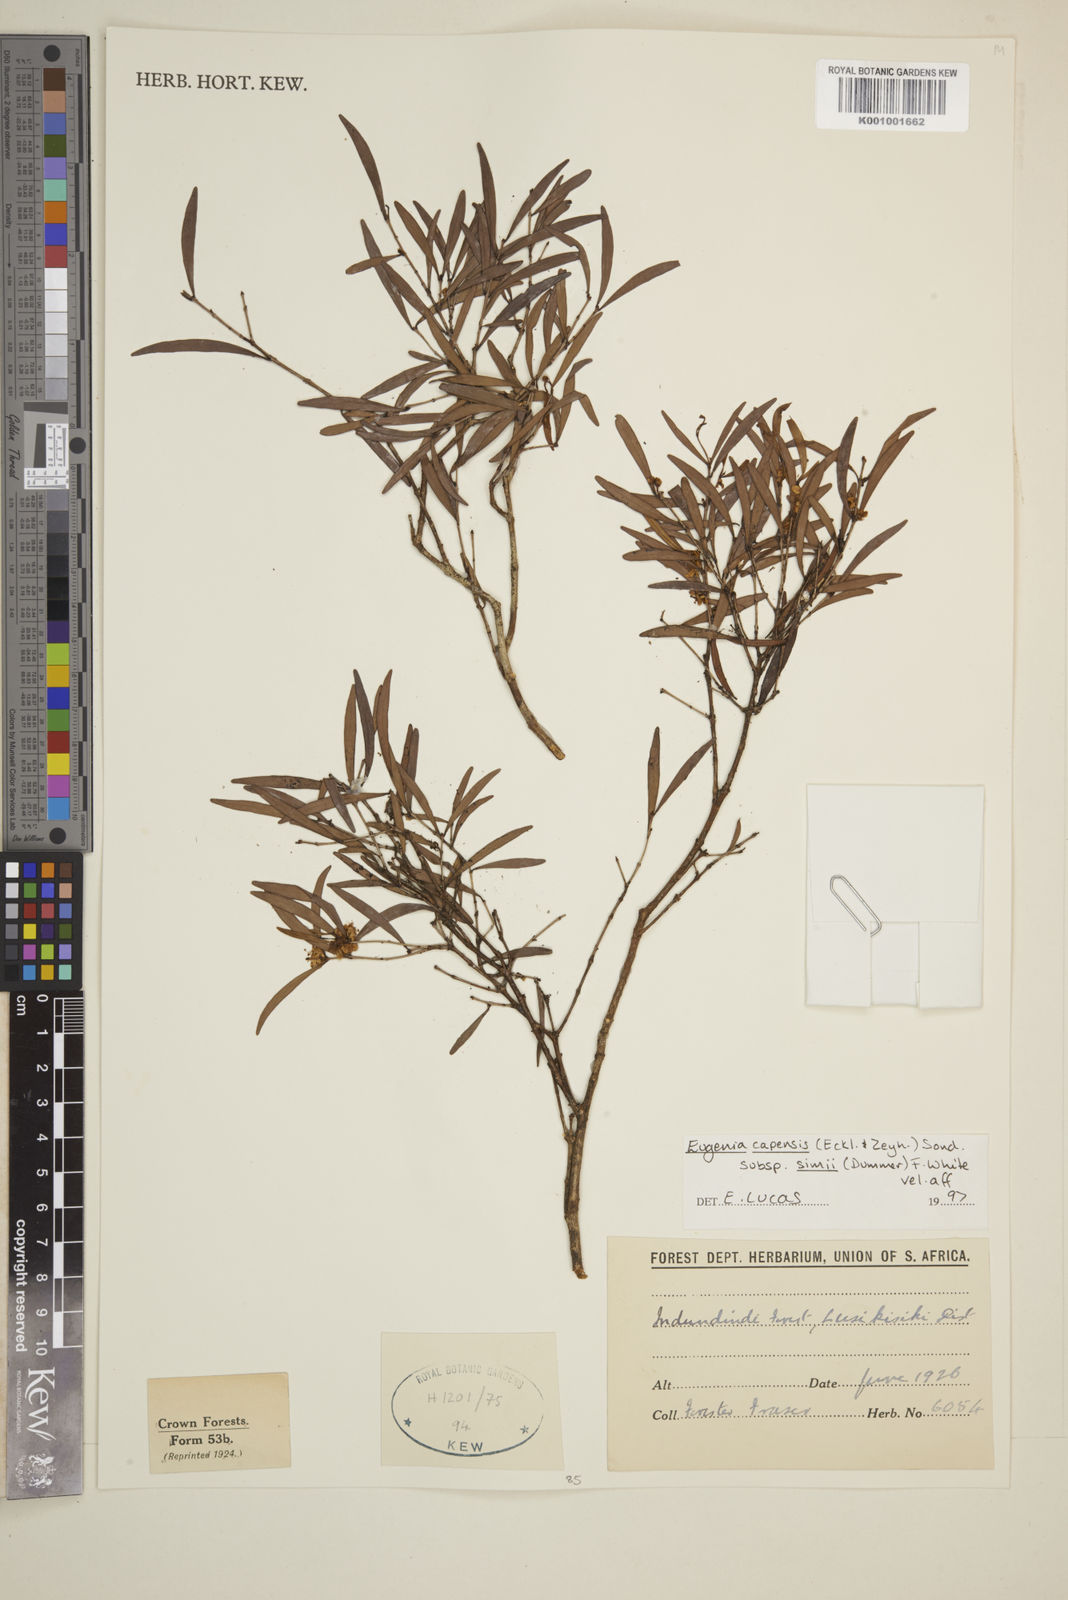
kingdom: Plantae
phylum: Tracheophyta
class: Magnoliopsida
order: Myrtales
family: Myrtaceae
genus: Eugenia
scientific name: Eugenia simii
